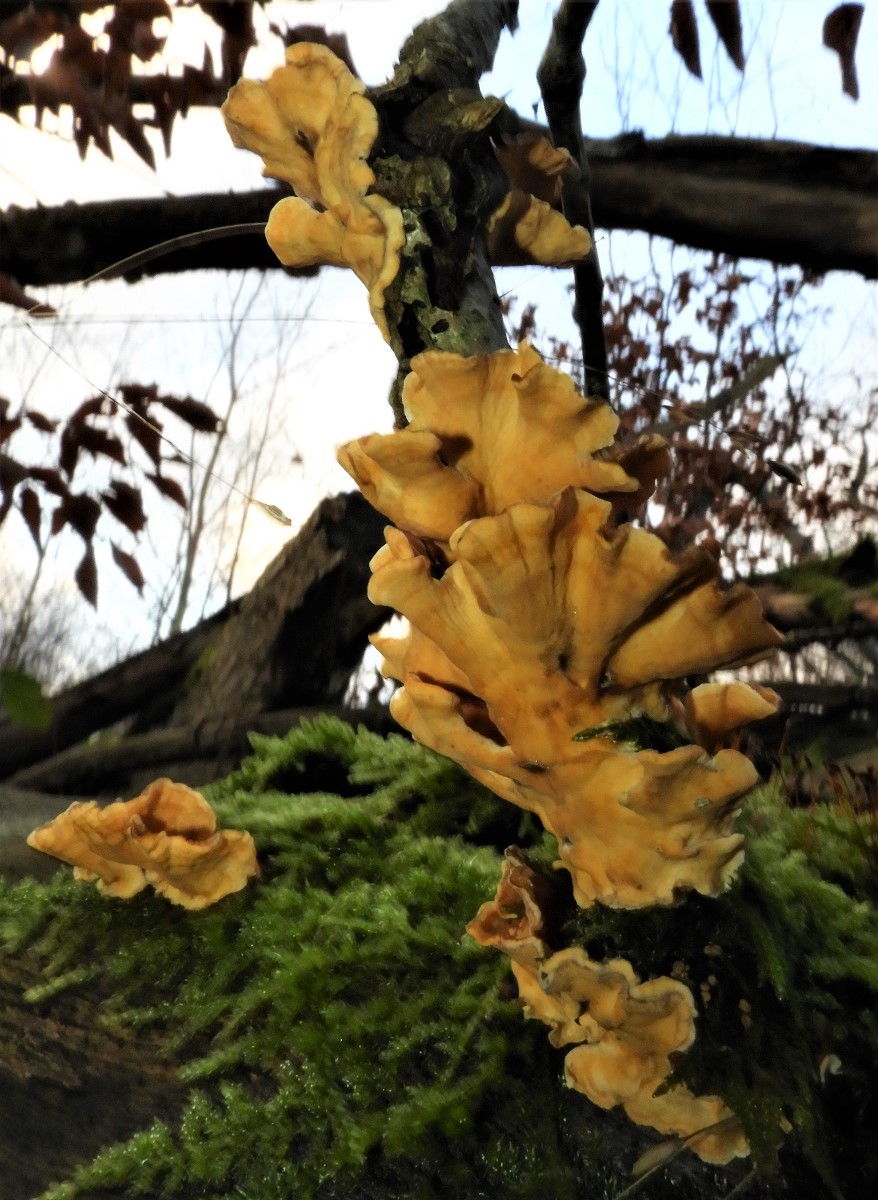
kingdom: Fungi
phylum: Basidiomycota
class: Agaricomycetes
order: Russulales
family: Stereaceae
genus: Stereum
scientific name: Stereum hirsutum
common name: håret lædersvamp
